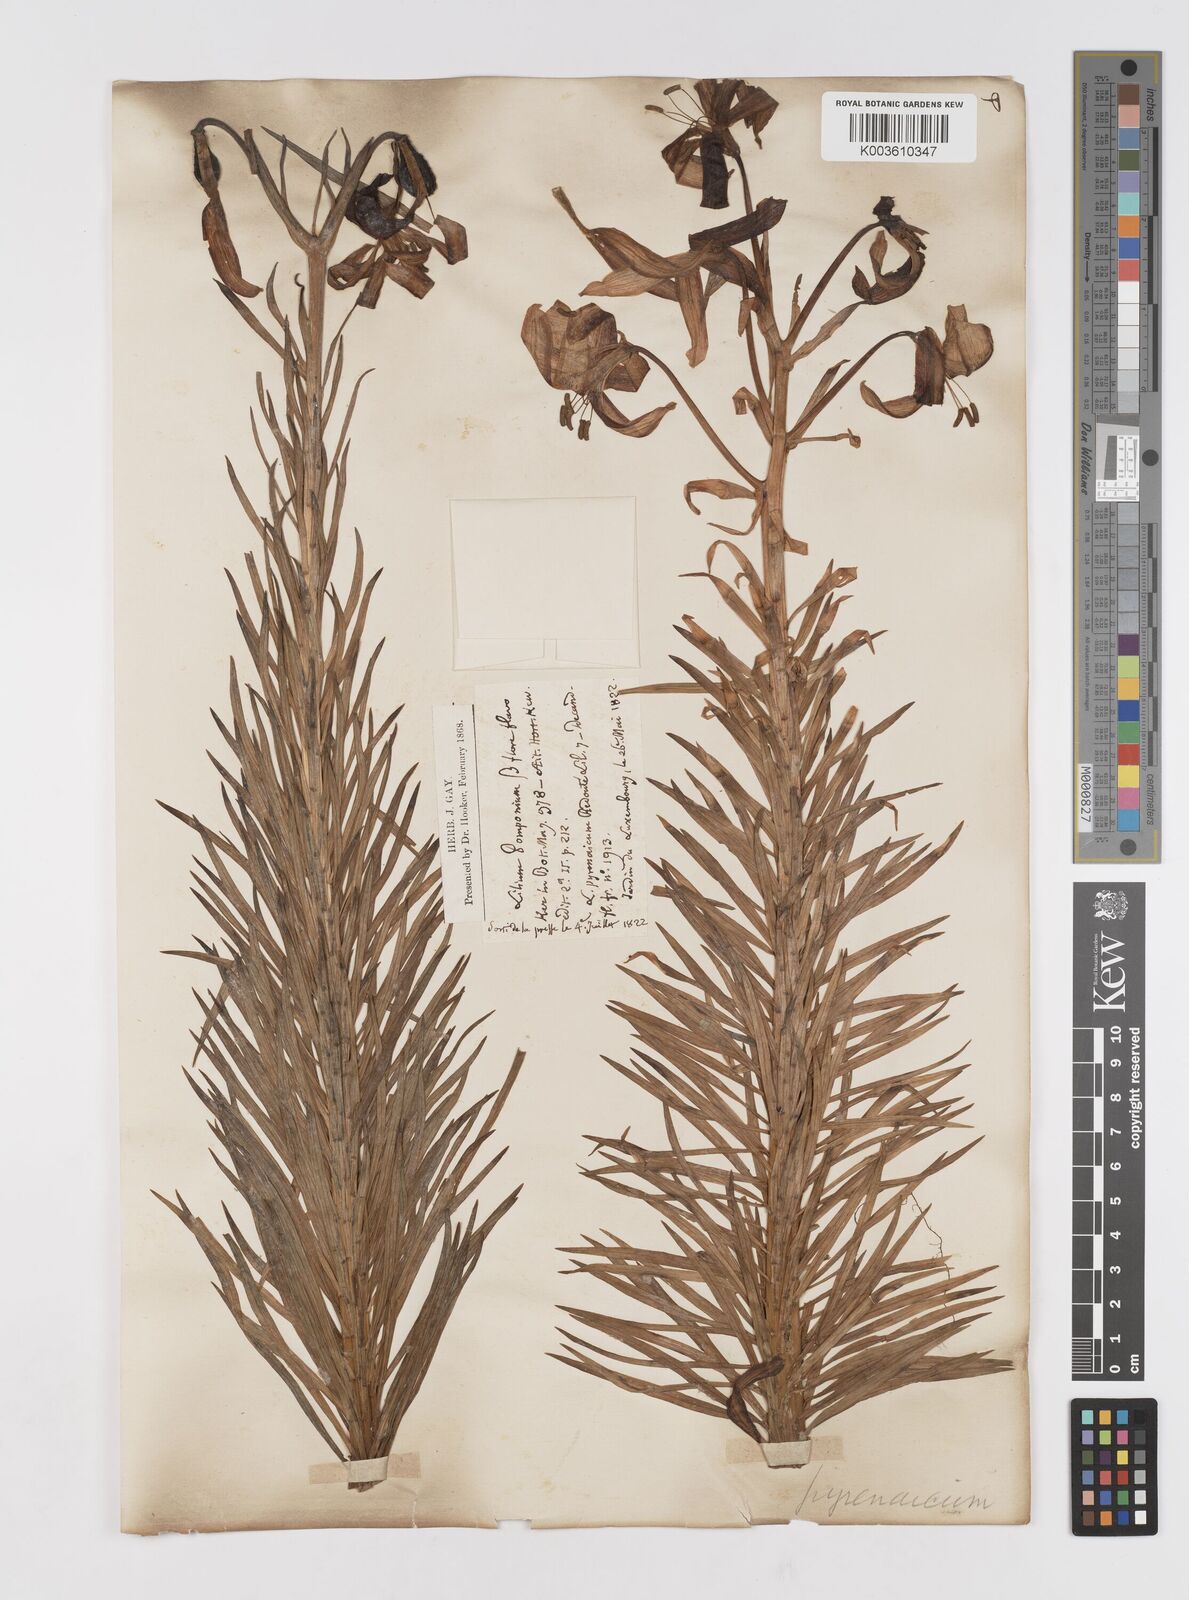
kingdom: Plantae
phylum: Tracheophyta
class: Liliopsida
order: Liliales
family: Liliaceae
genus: Lilium
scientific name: Lilium
